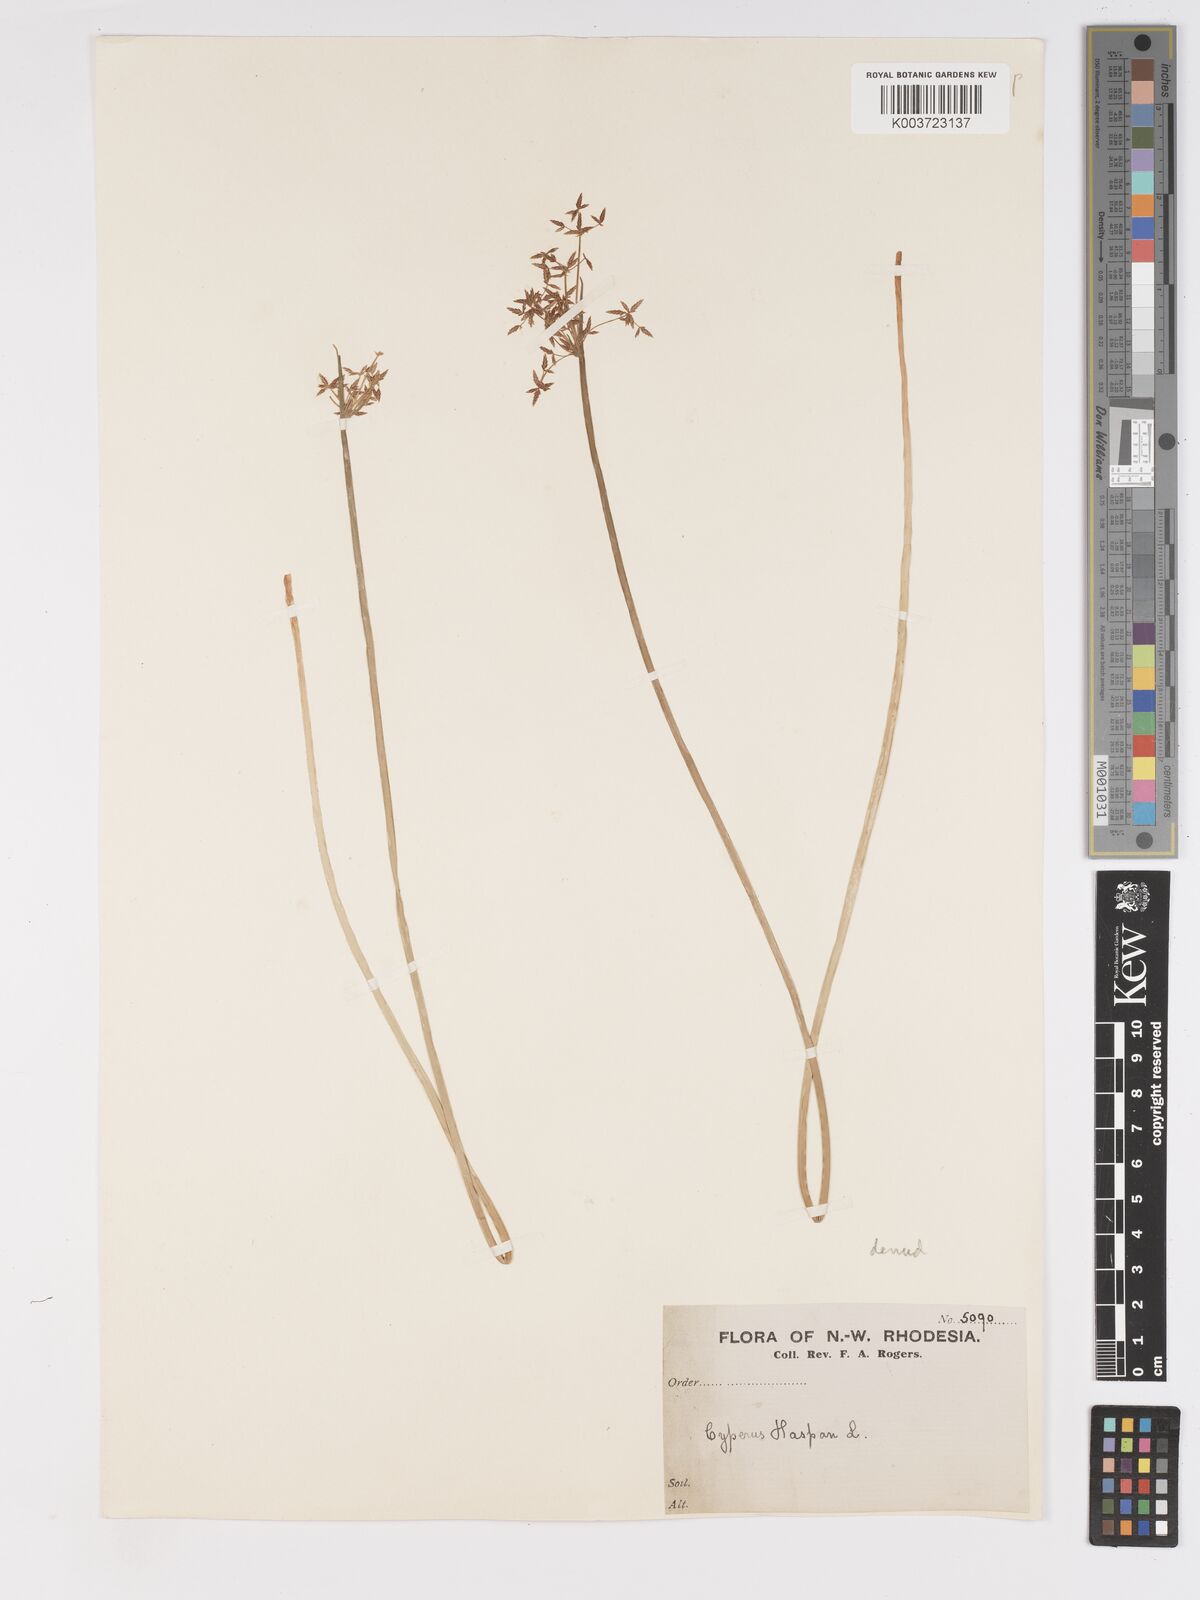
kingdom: Plantae
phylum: Tracheophyta
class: Liliopsida
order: Poales
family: Cyperaceae
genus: Cyperus
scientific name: Cyperus haspan
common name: Haspan flatsedge
